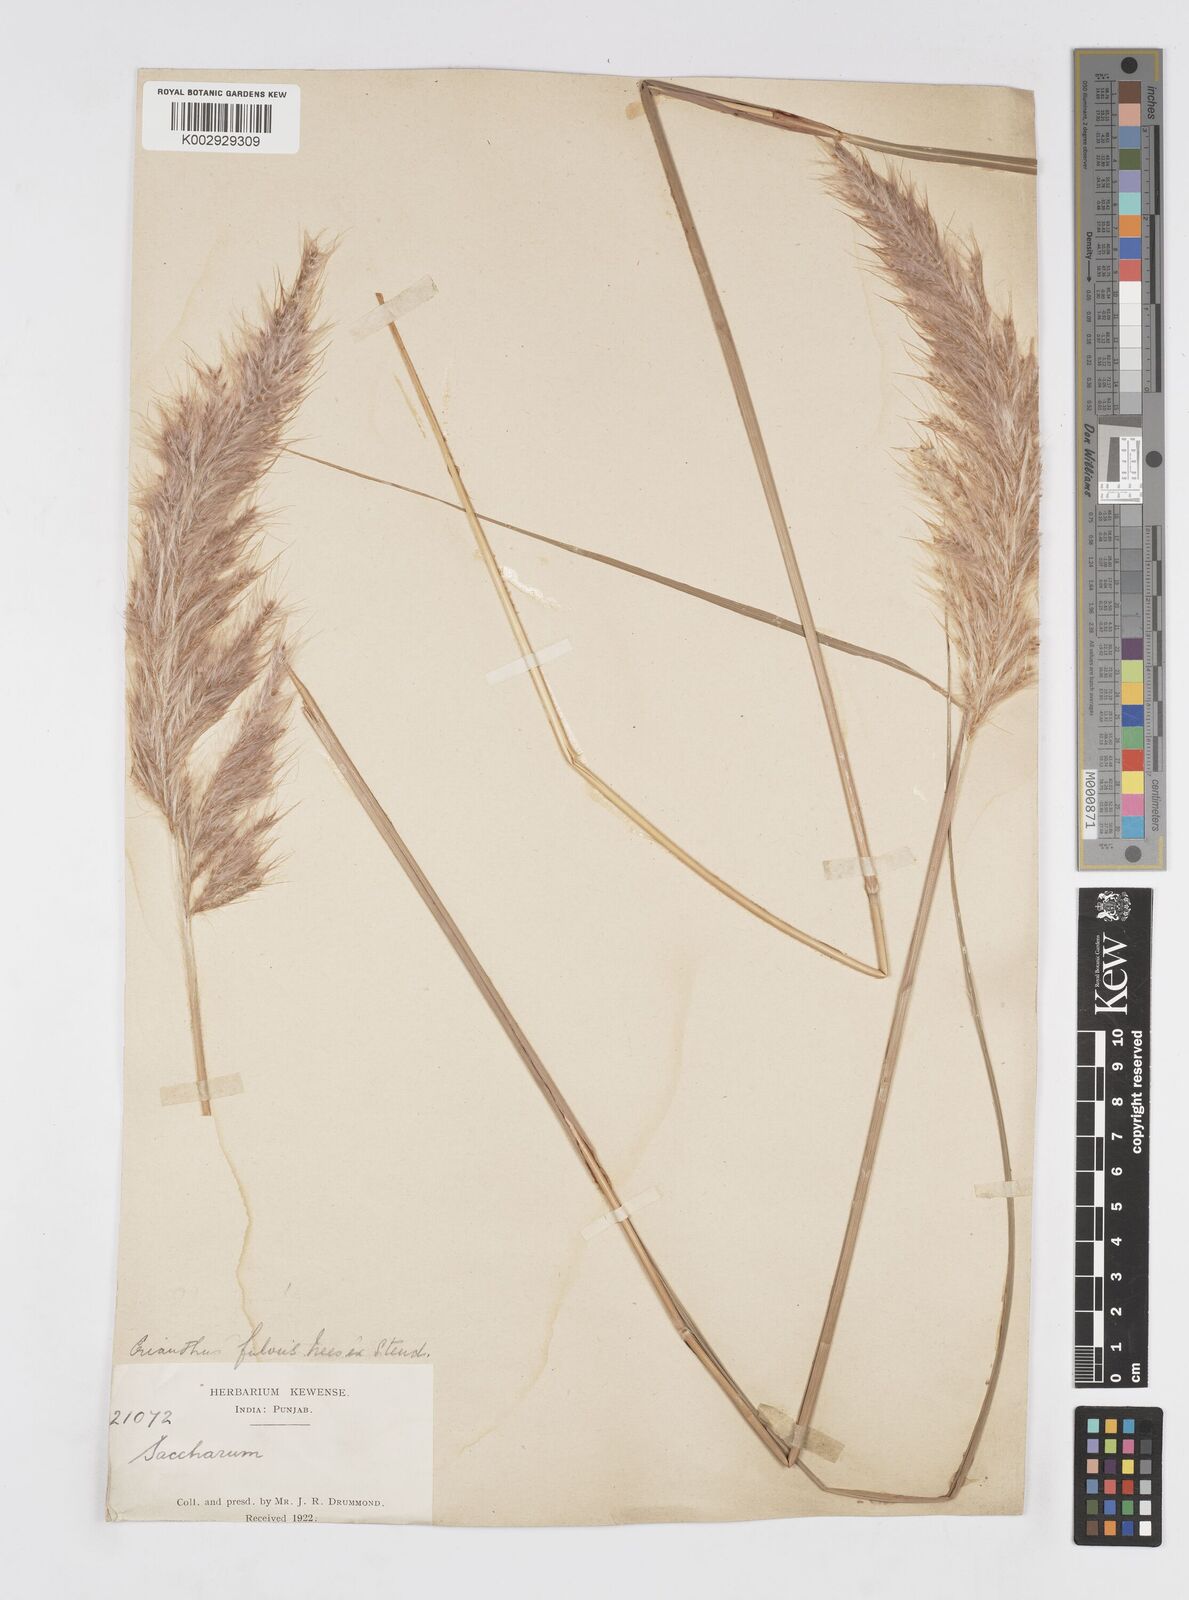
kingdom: Plantae
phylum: Tracheophyta
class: Liliopsida
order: Poales
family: Poaceae
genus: Tripidium
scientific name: Tripidium rufipilum
